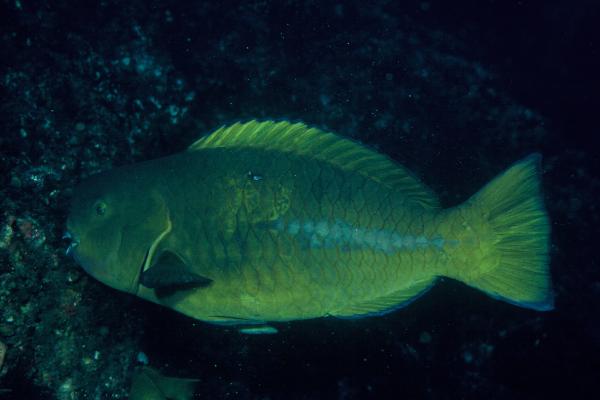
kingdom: Animalia
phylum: Chordata
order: Perciformes
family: Scaridae
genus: Scarus
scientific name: Scarus obishime
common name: Yellowtail parrotfish
